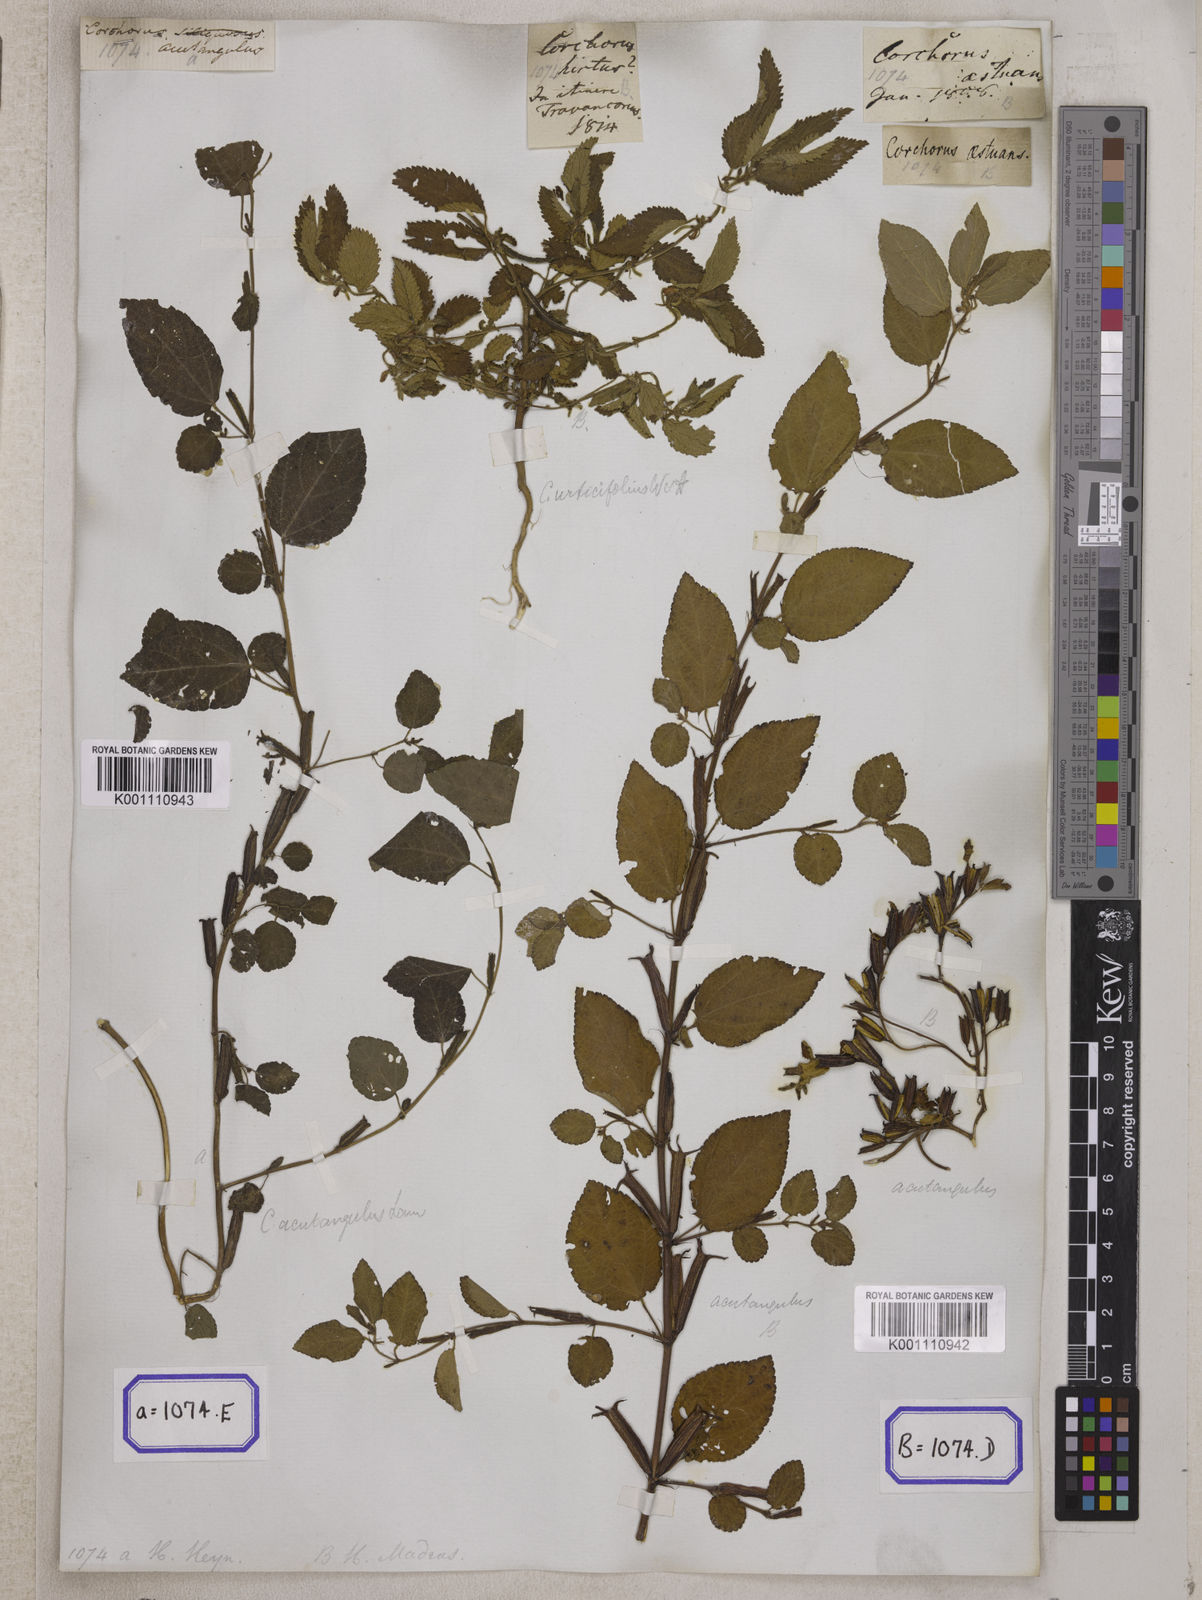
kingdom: Plantae
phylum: Tracheophyta
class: Magnoliopsida
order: Malvales
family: Malvaceae
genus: Corchorus
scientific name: Corchorus urticifolius
